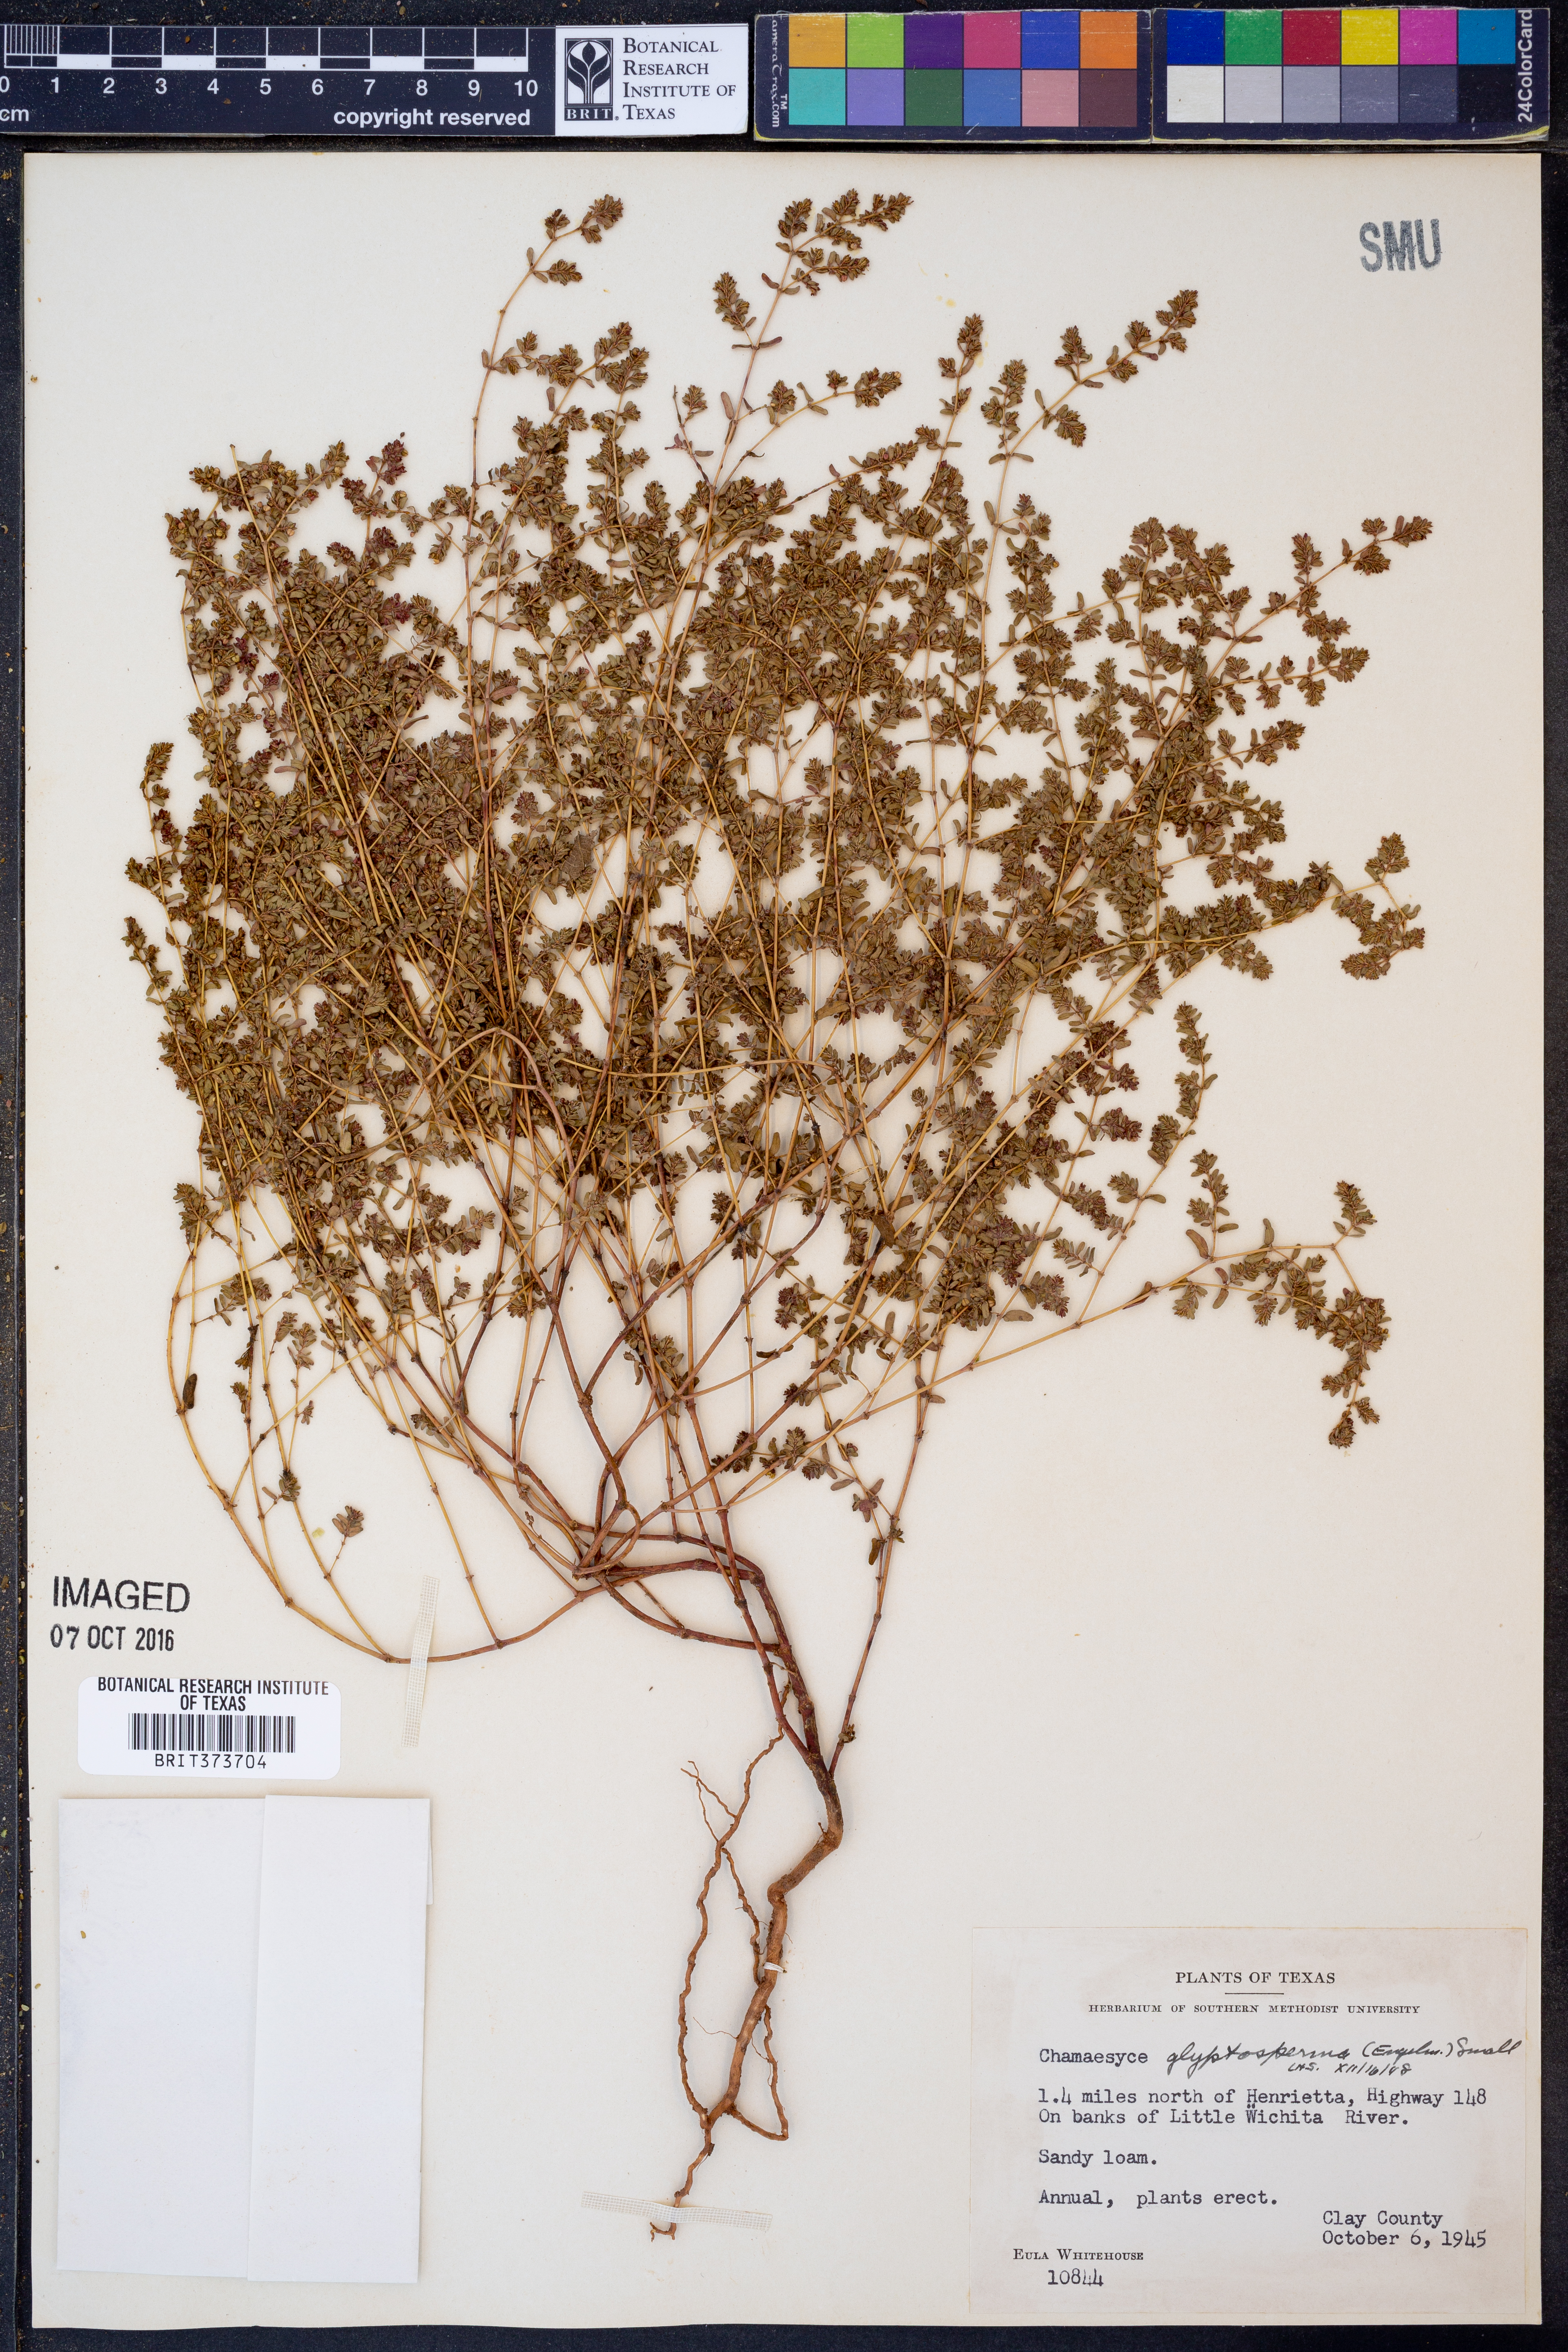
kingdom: Plantae
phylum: Tracheophyta
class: Magnoliopsida
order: Malpighiales
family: Euphorbiaceae
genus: Euphorbia
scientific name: Euphorbia glyptosperma
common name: Corrugate-seeded spurge
